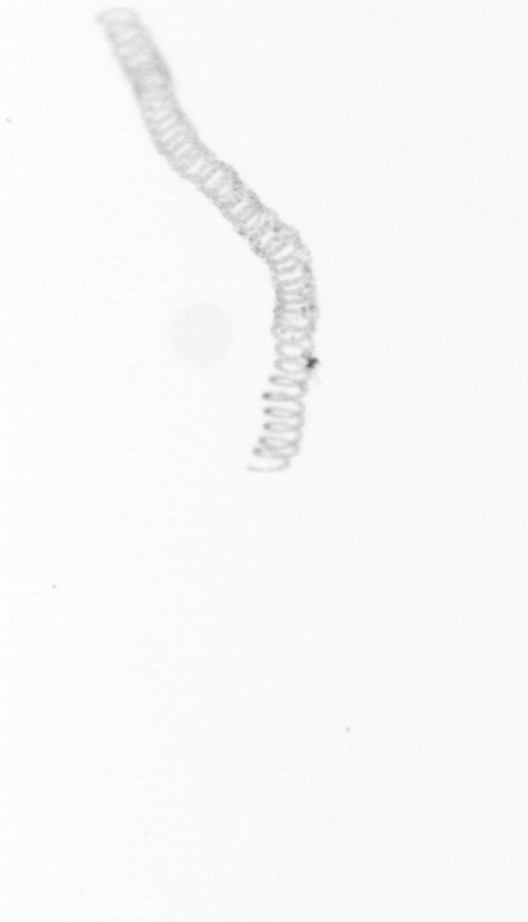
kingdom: Chromista
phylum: Ochrophyta
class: Bacillariophyceae
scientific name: Bacillariophyceae
